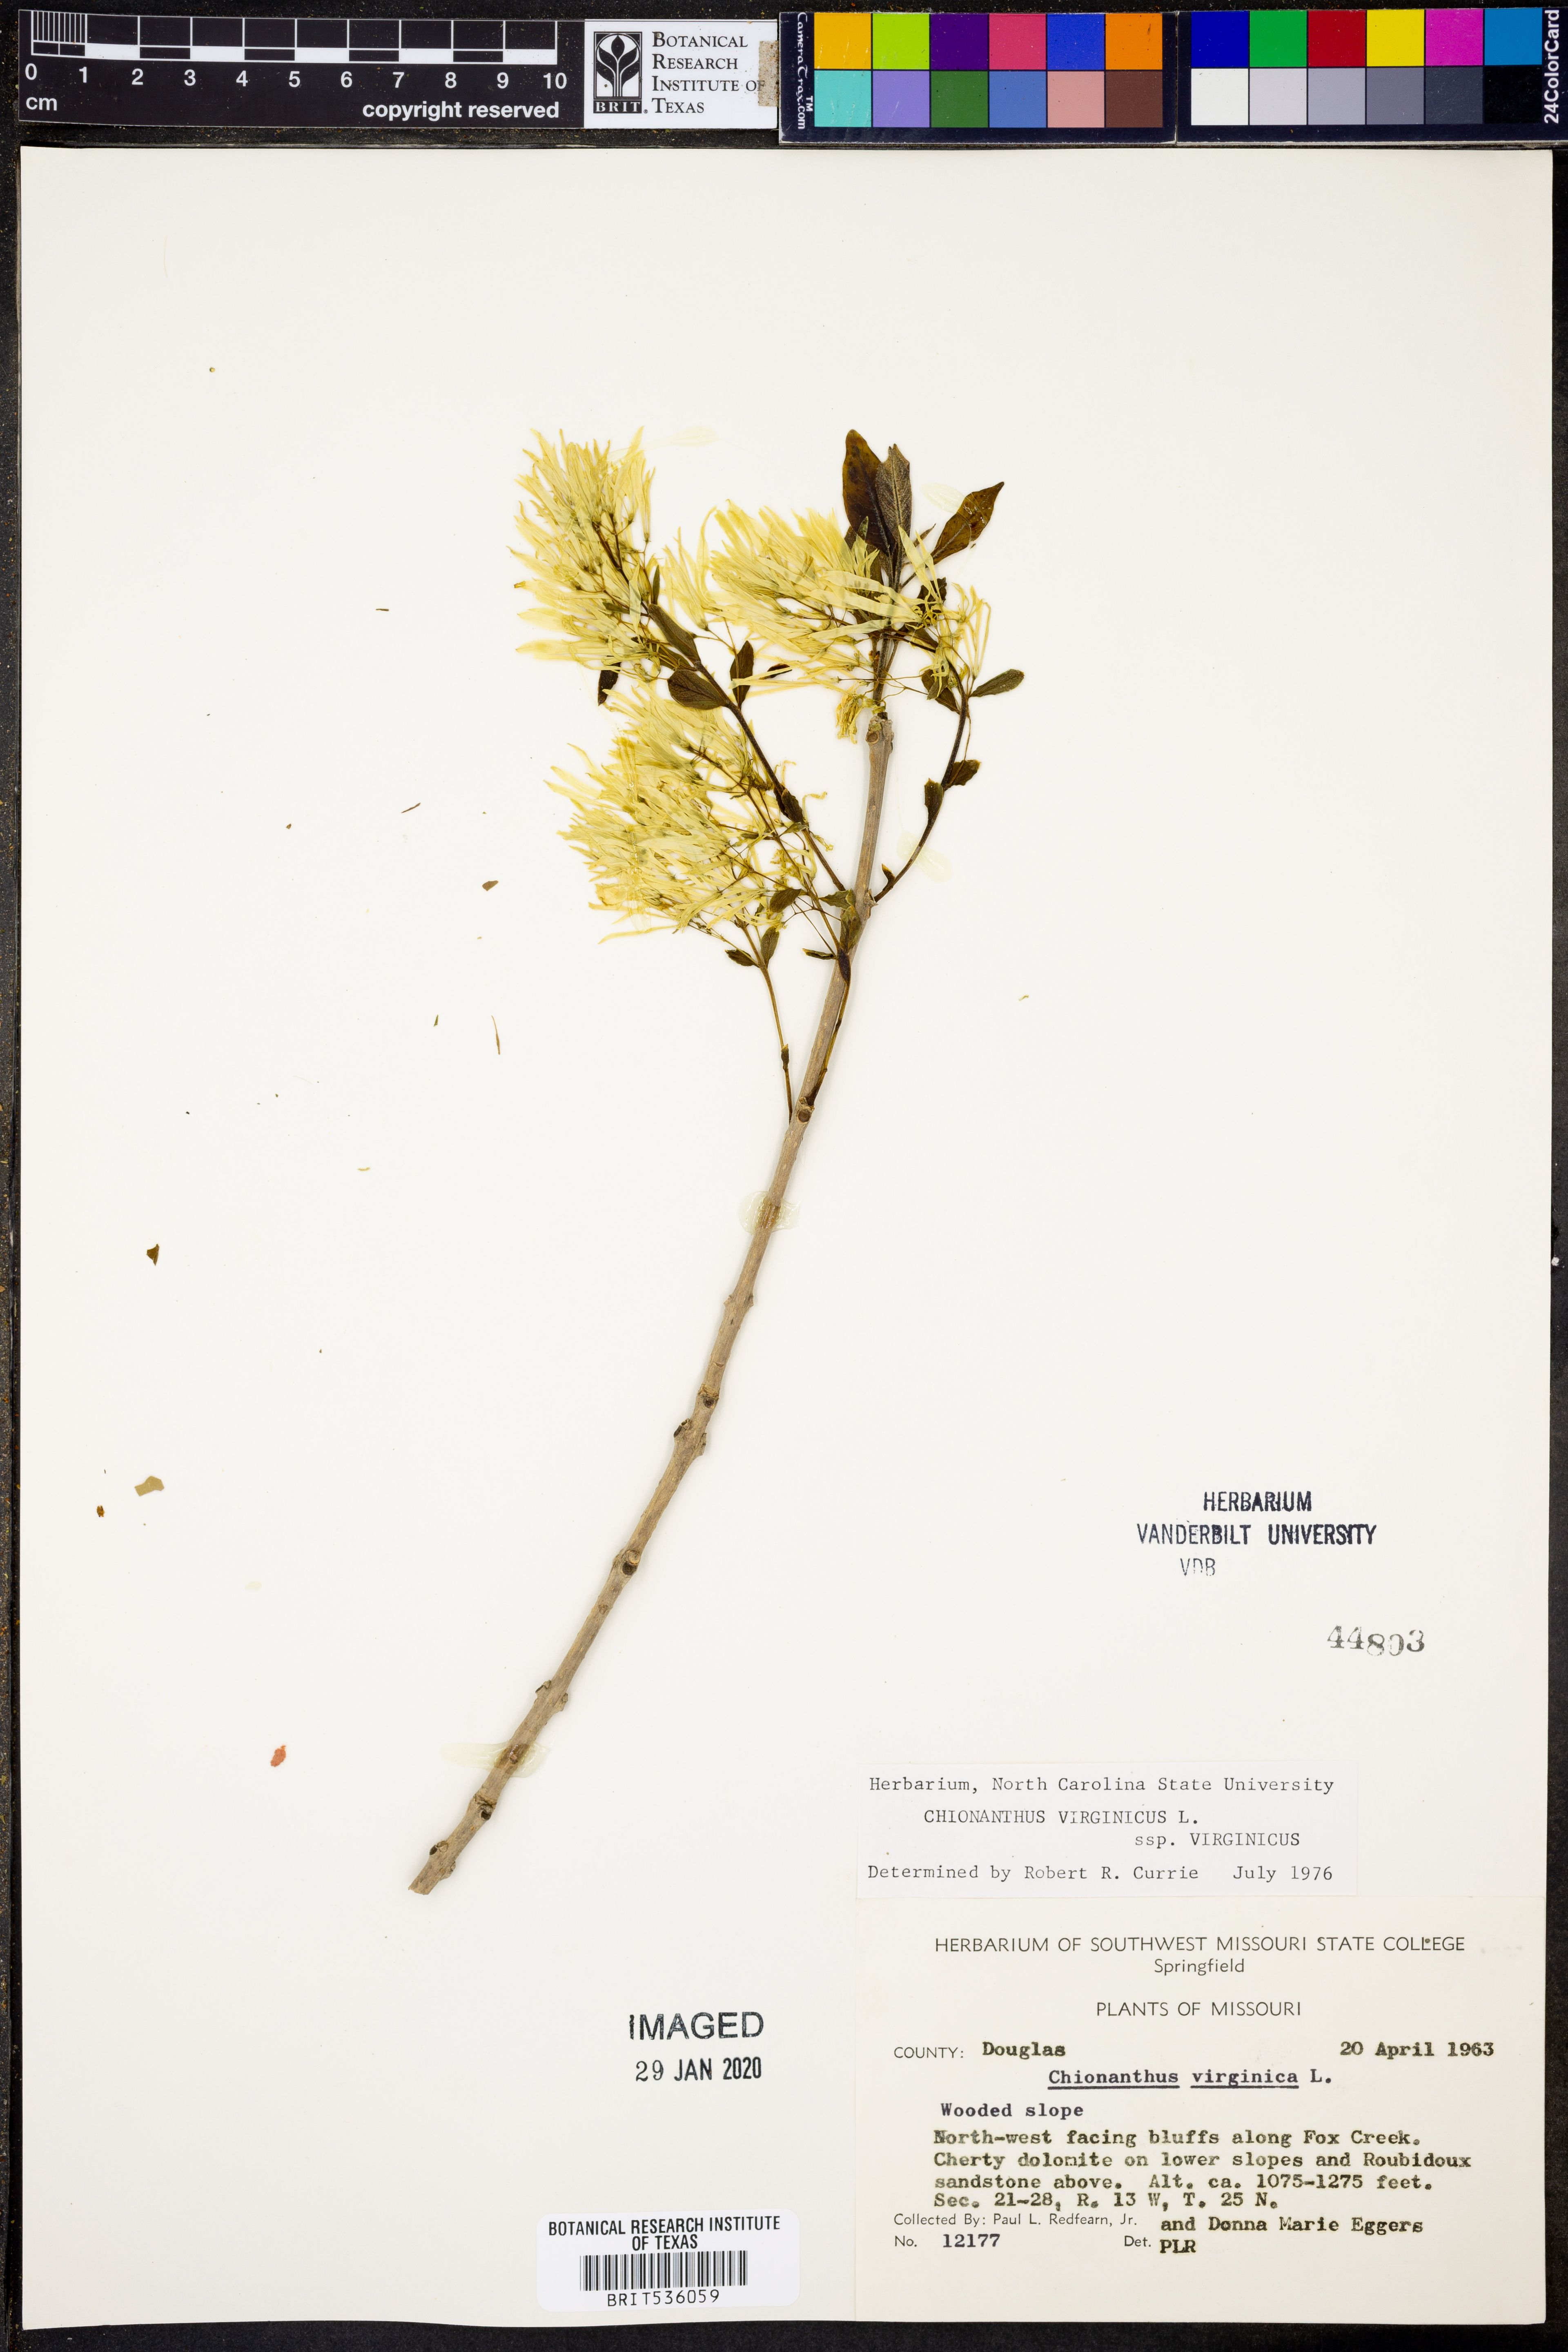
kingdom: Plantae
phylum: Tracheophyta
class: Magnoliopsida
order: Lamiales
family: Oleaceae
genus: Chionanthus
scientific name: Chionanthus virginicus
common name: American fringetree
